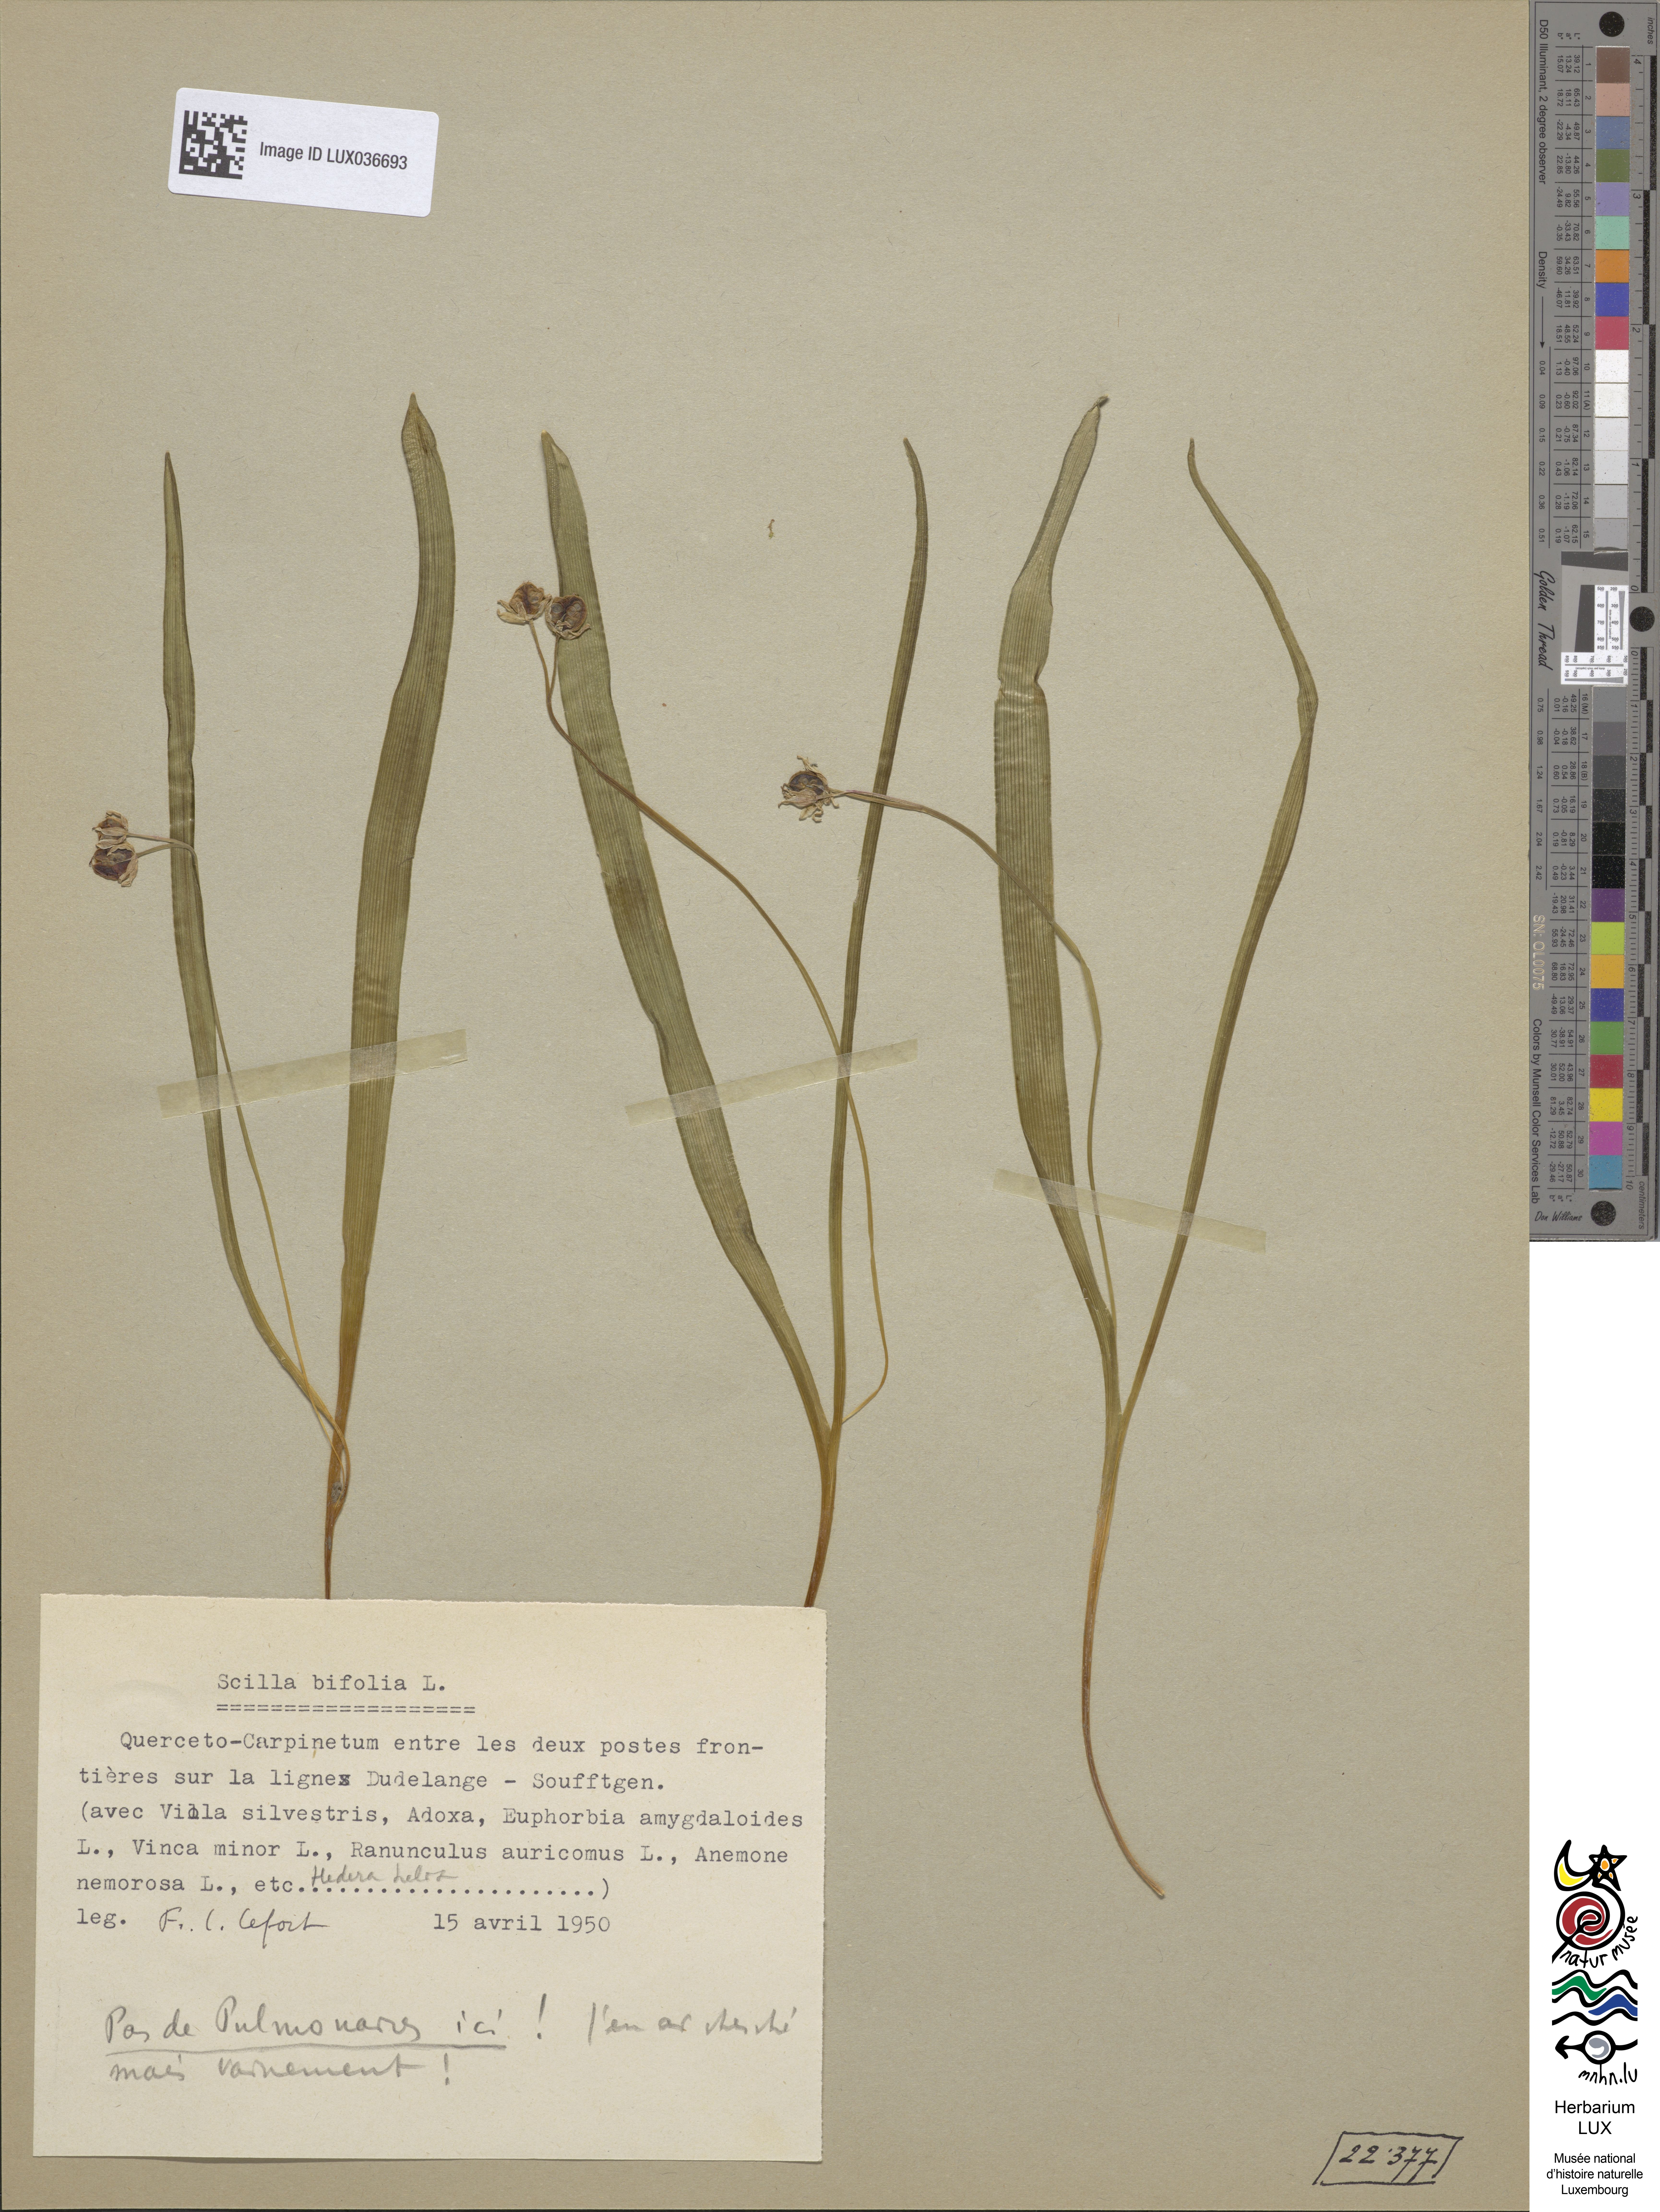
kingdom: Plantae
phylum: Tracheophyta
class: Liliopsida
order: Asparagales
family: Asparagaceae
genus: Scilla
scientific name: Scilla bifolia
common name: Alpine squill
